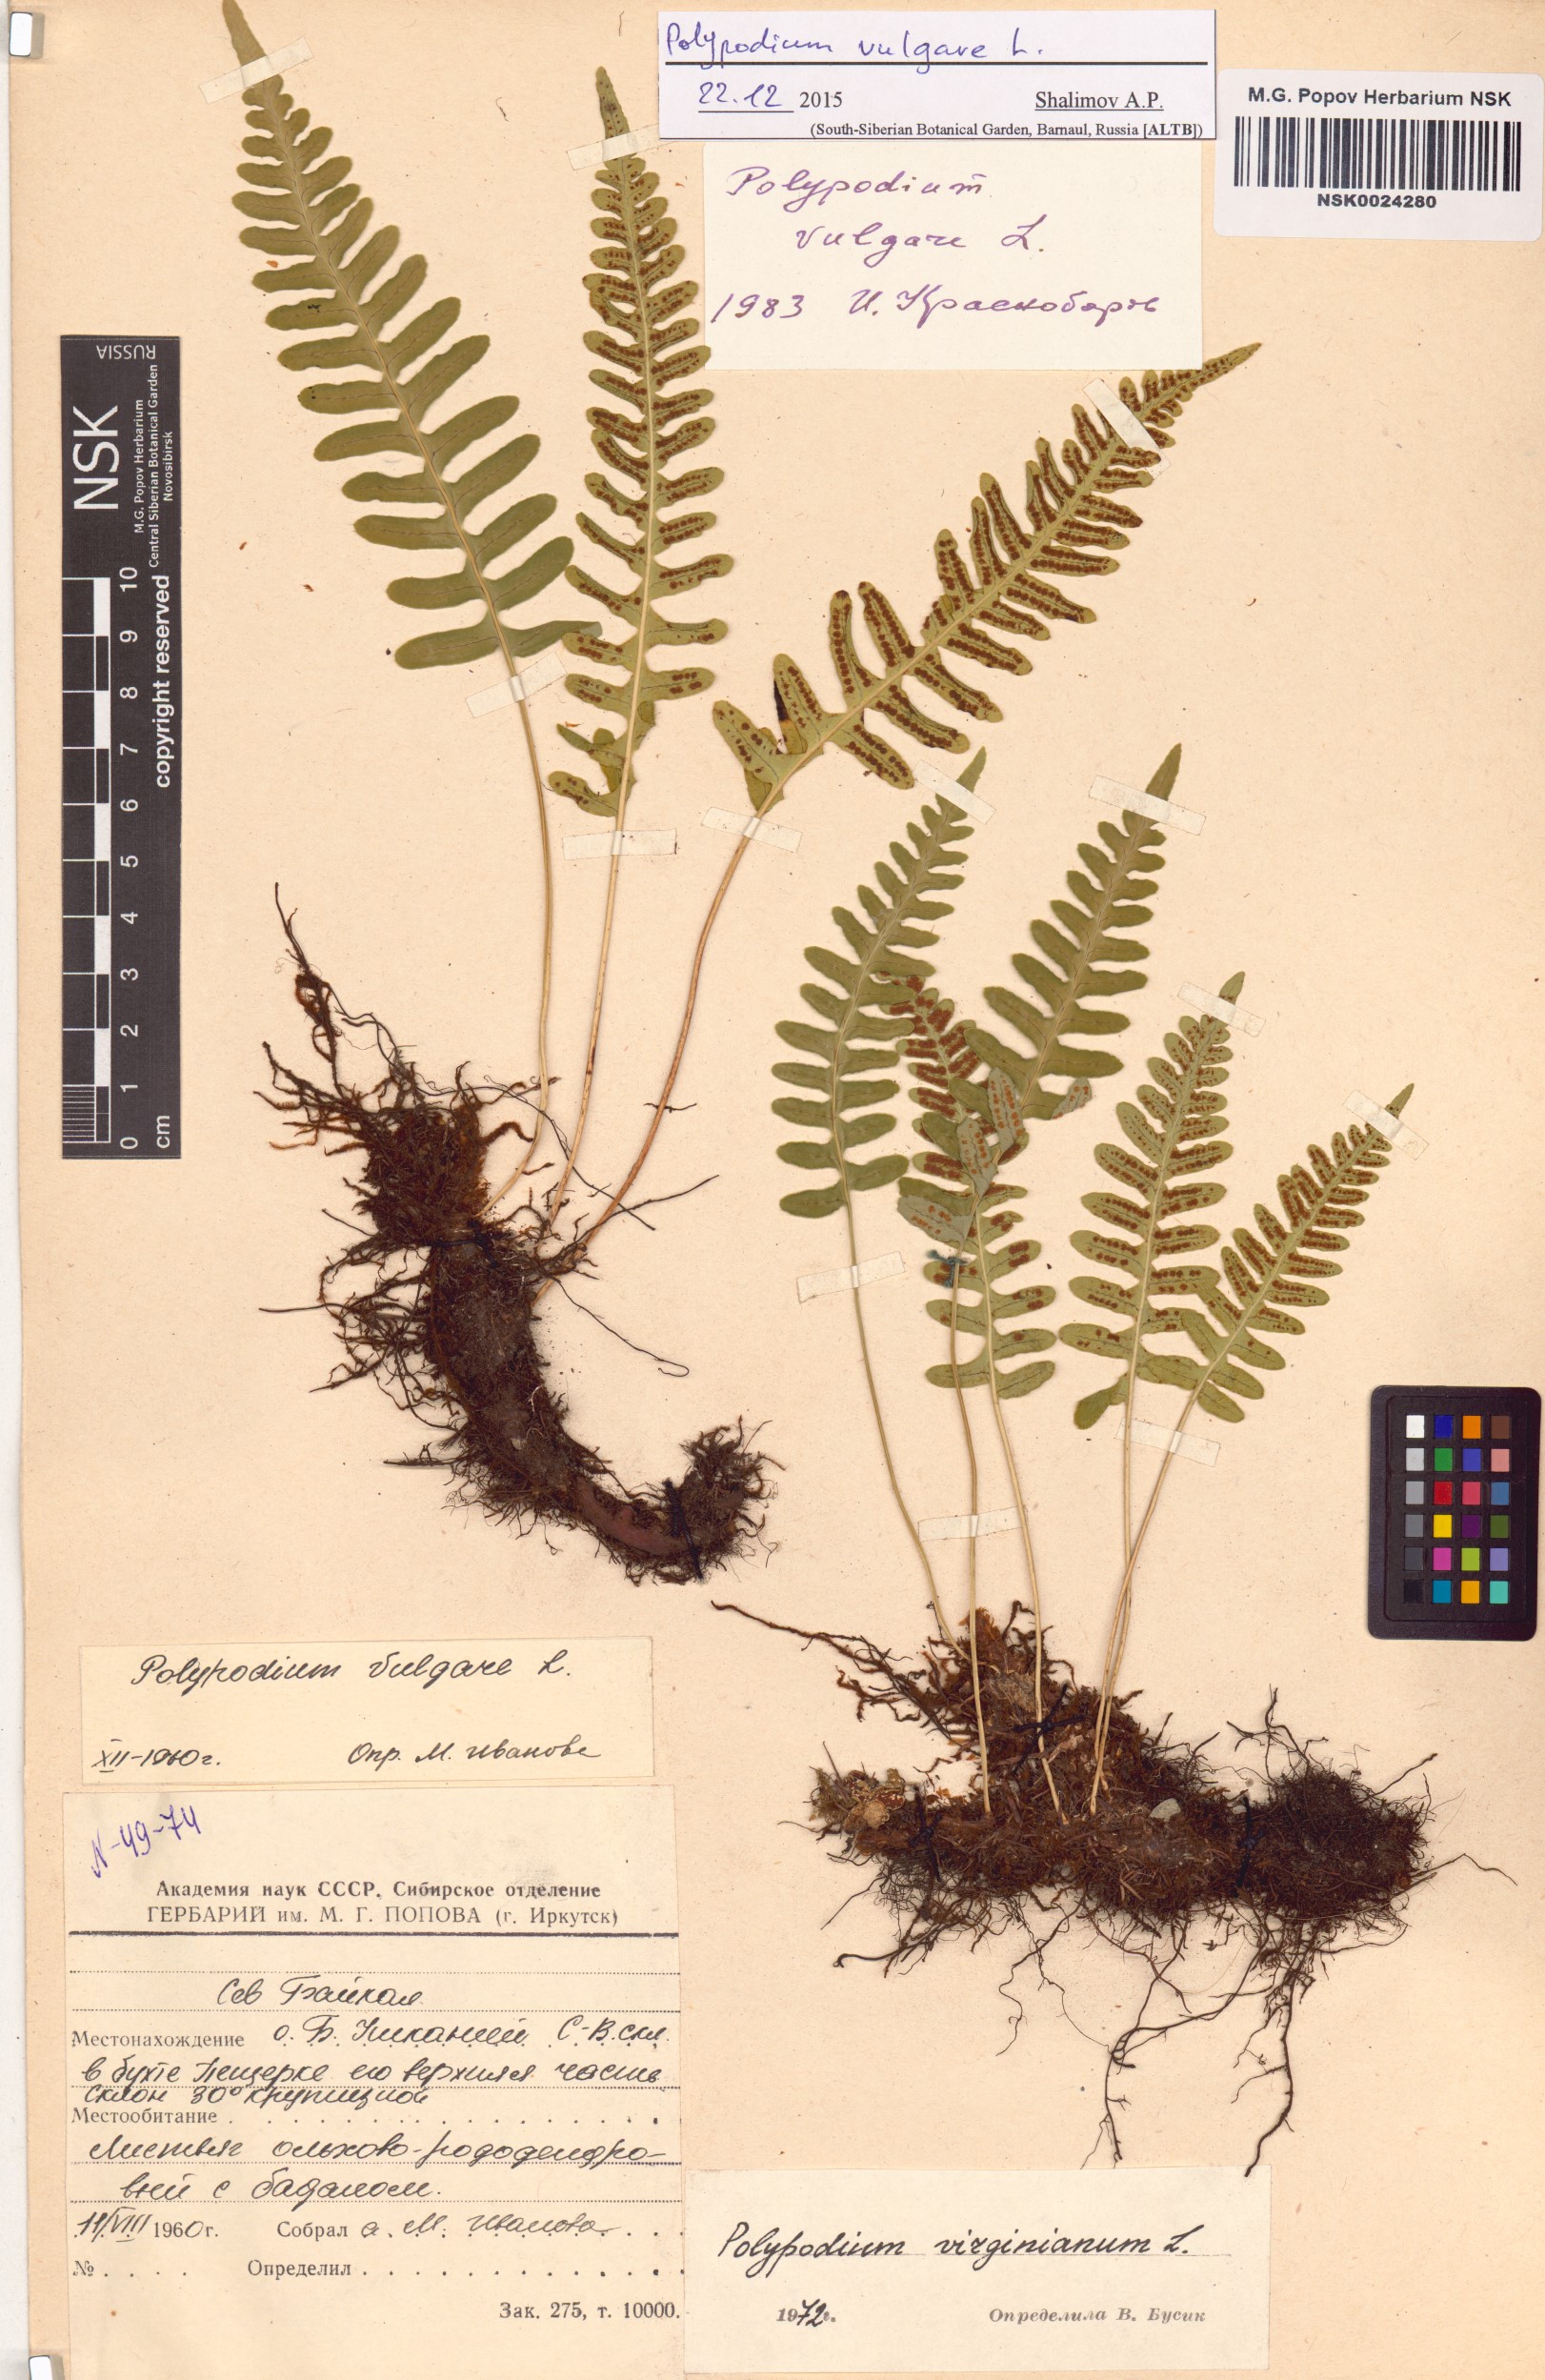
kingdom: Plantae
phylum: Tracheophyta
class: Polypodiopsida
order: Polypodiales
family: Polypodiaceae
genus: Polypodium
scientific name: Polypodium vulgare
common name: Common polypody
